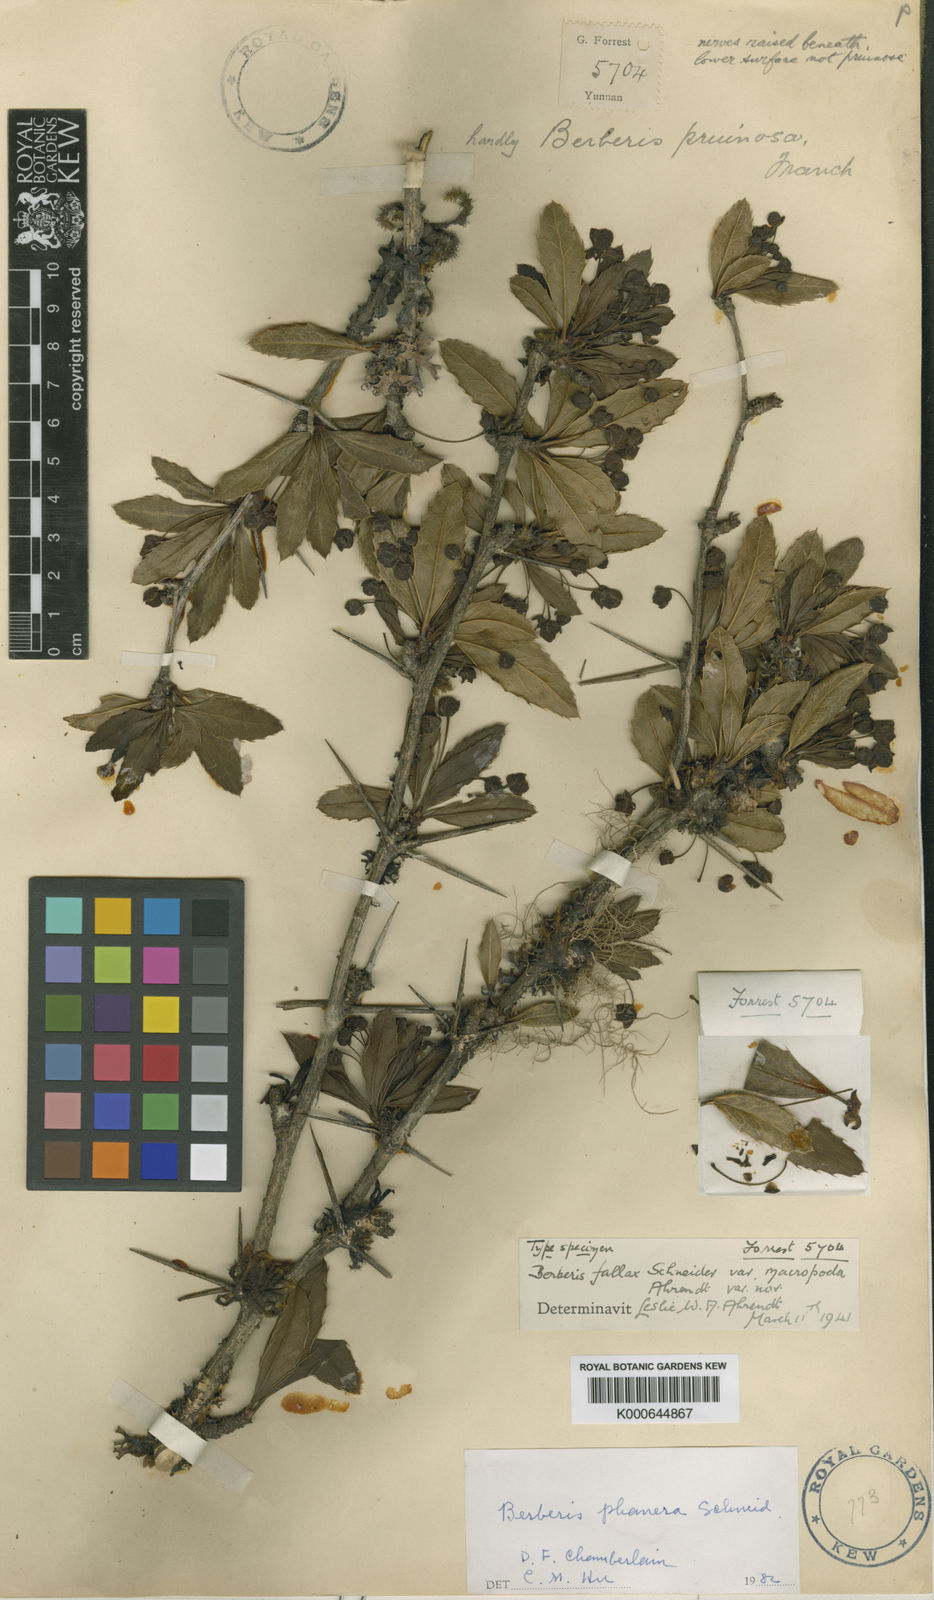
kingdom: Plantae
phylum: Tracheophyta
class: Magnoliopsida
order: Ranunculales
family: Berberidaceae
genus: Berberis
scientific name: Berberis fallax
